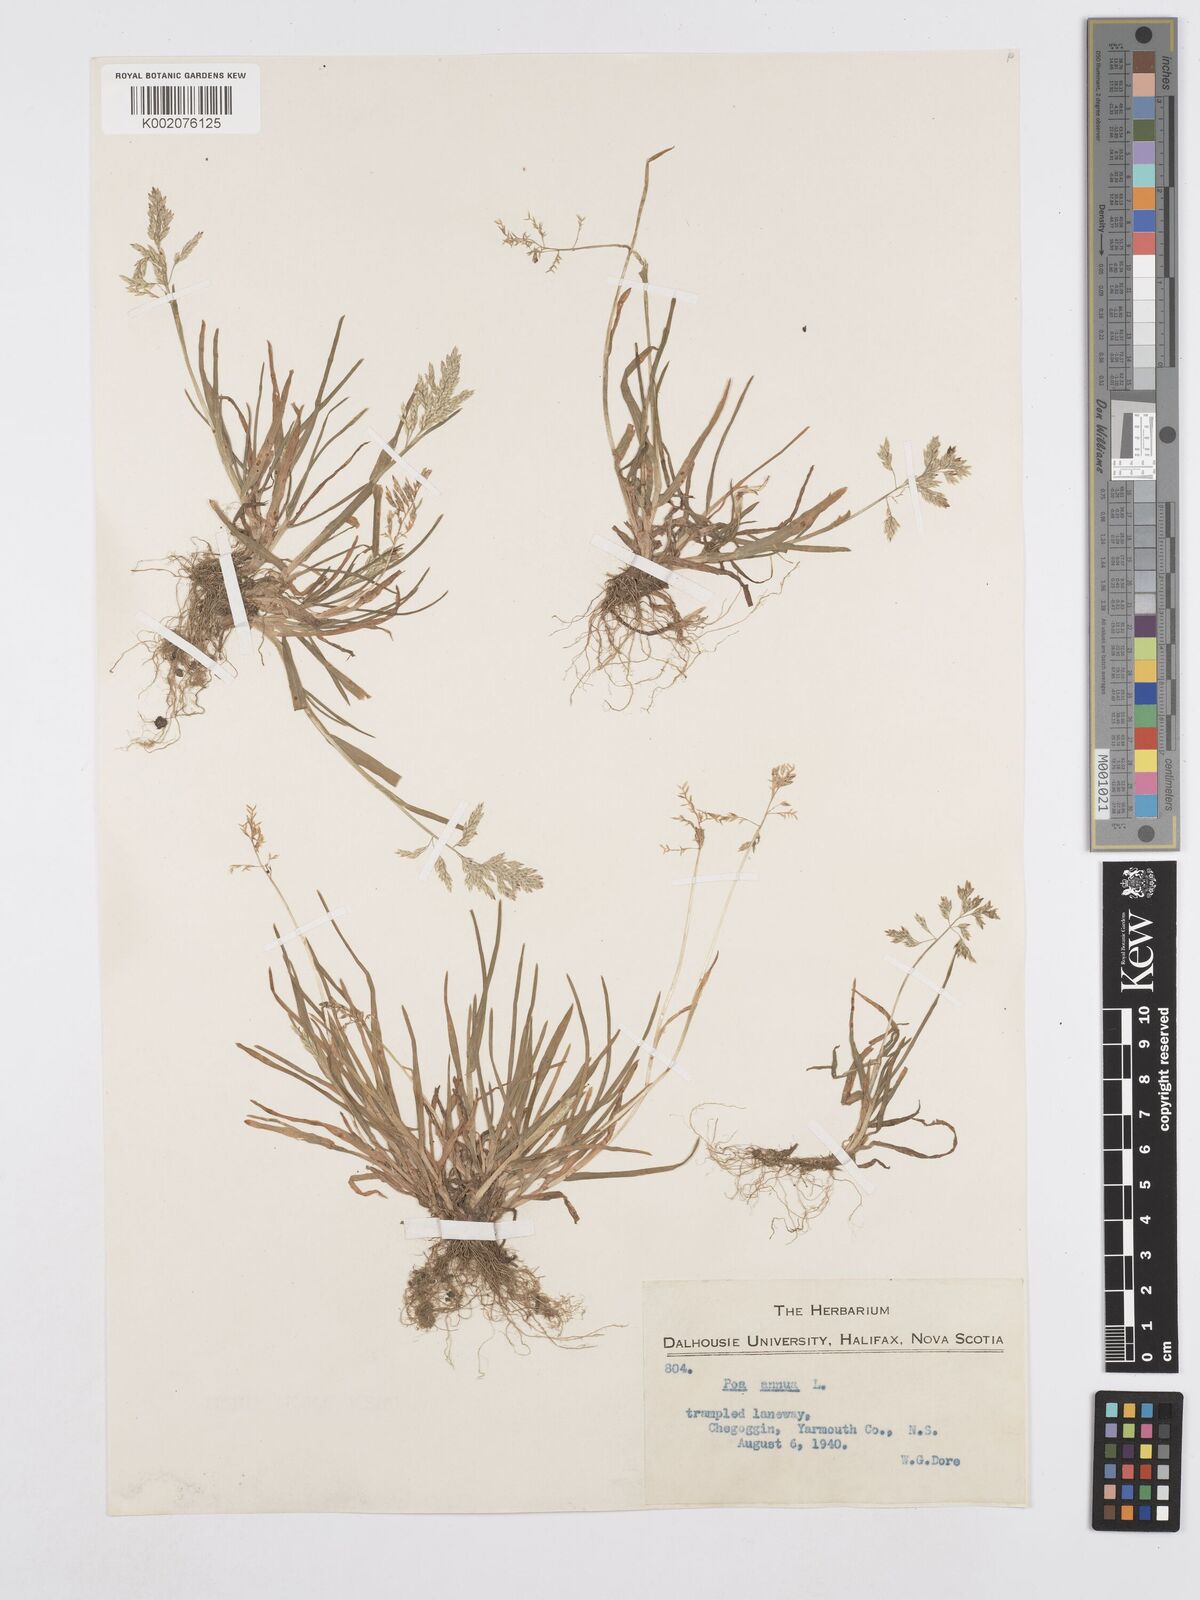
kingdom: Plantae
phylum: Tracheophyta
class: Liliopsida
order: Poales
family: Poaceae
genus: Poa
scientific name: Poa annua
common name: Annual bluegrass
